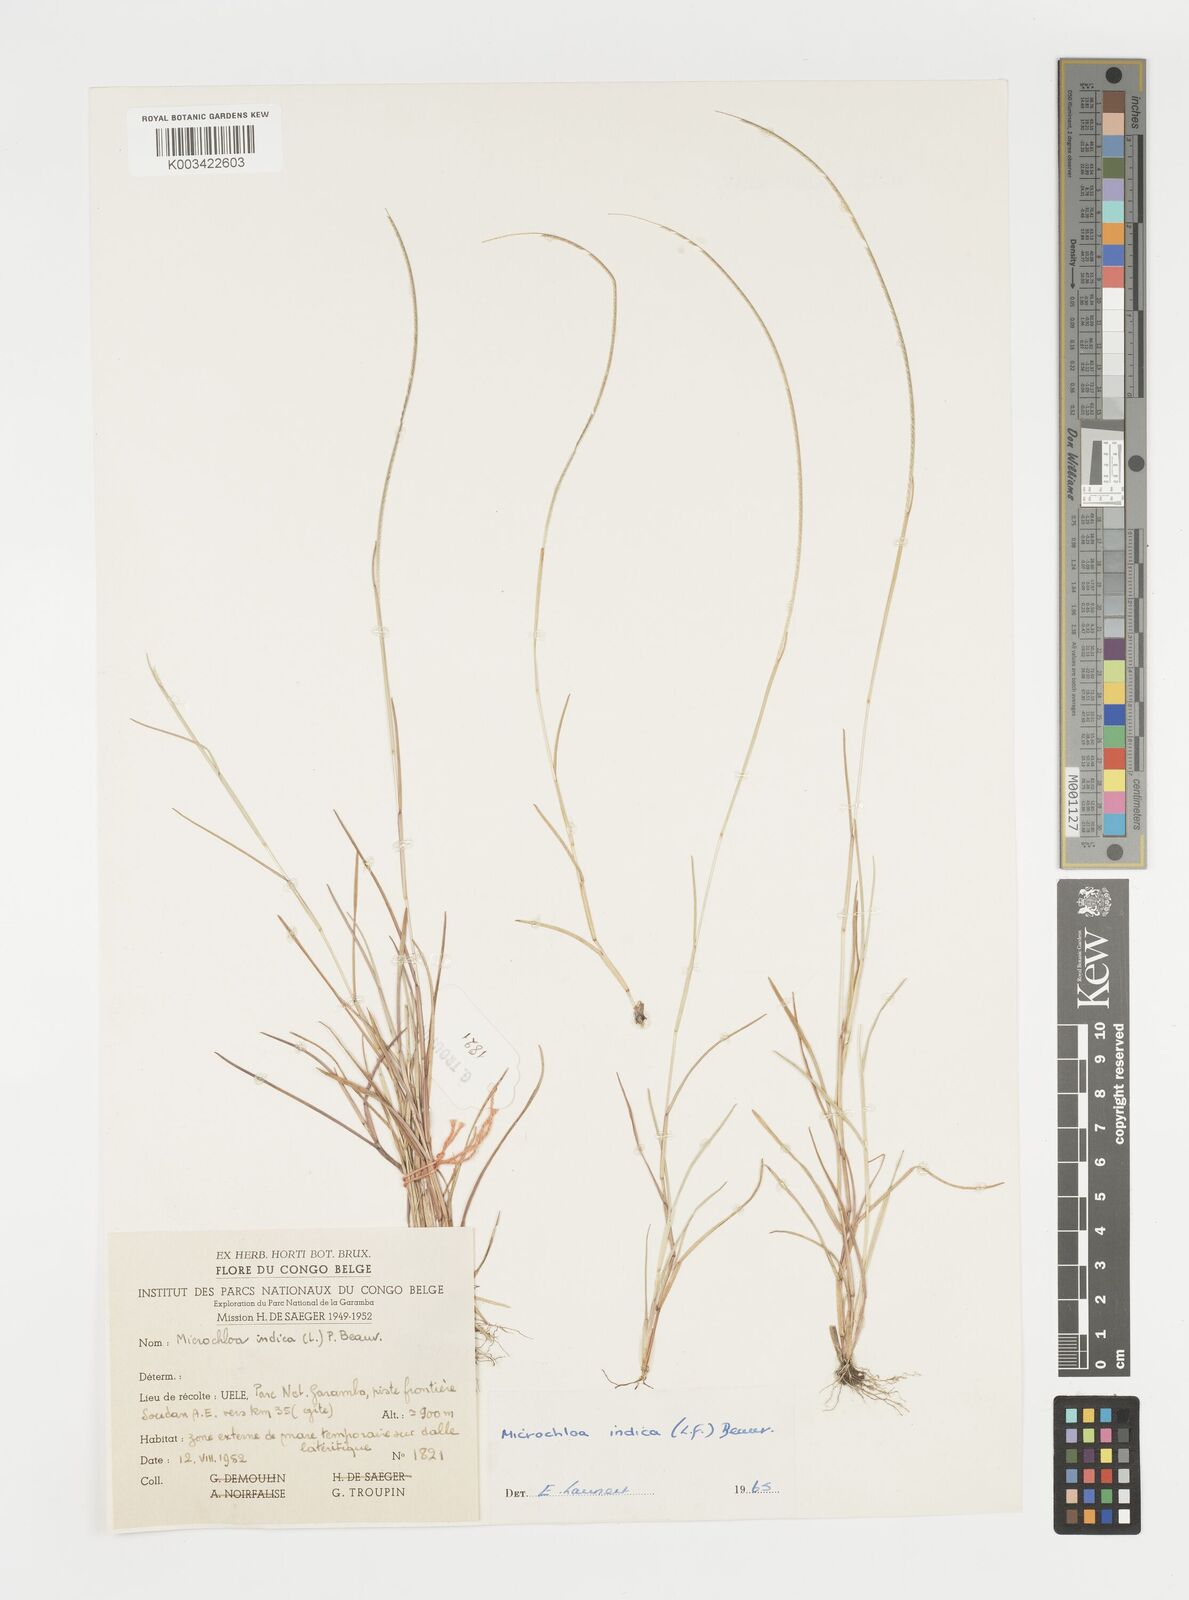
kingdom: Plantae
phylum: Tracheophyta
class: Liliopsida
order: Poales
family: Poaceae
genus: Microchloa
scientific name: Microchloa indica
